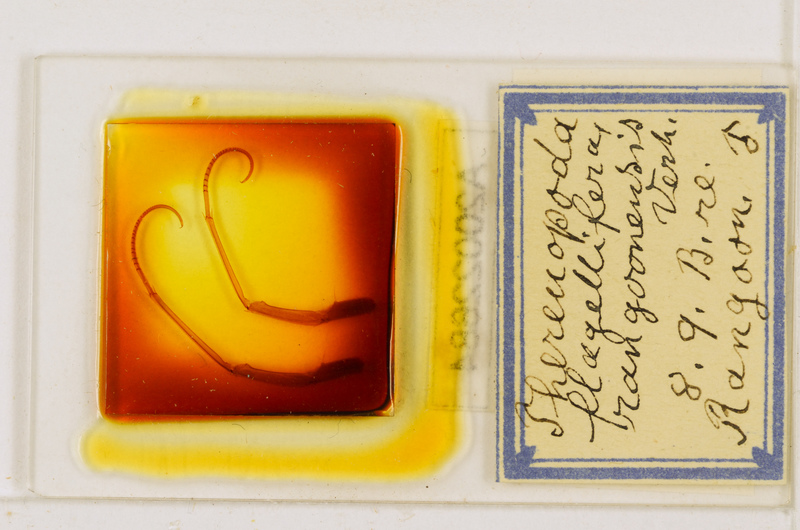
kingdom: Animalia
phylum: Arthropoda
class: Chilopoda
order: Scutigeromorpha
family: Scutigeridae
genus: Thereuopoda
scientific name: Thereuopoda longicornis
